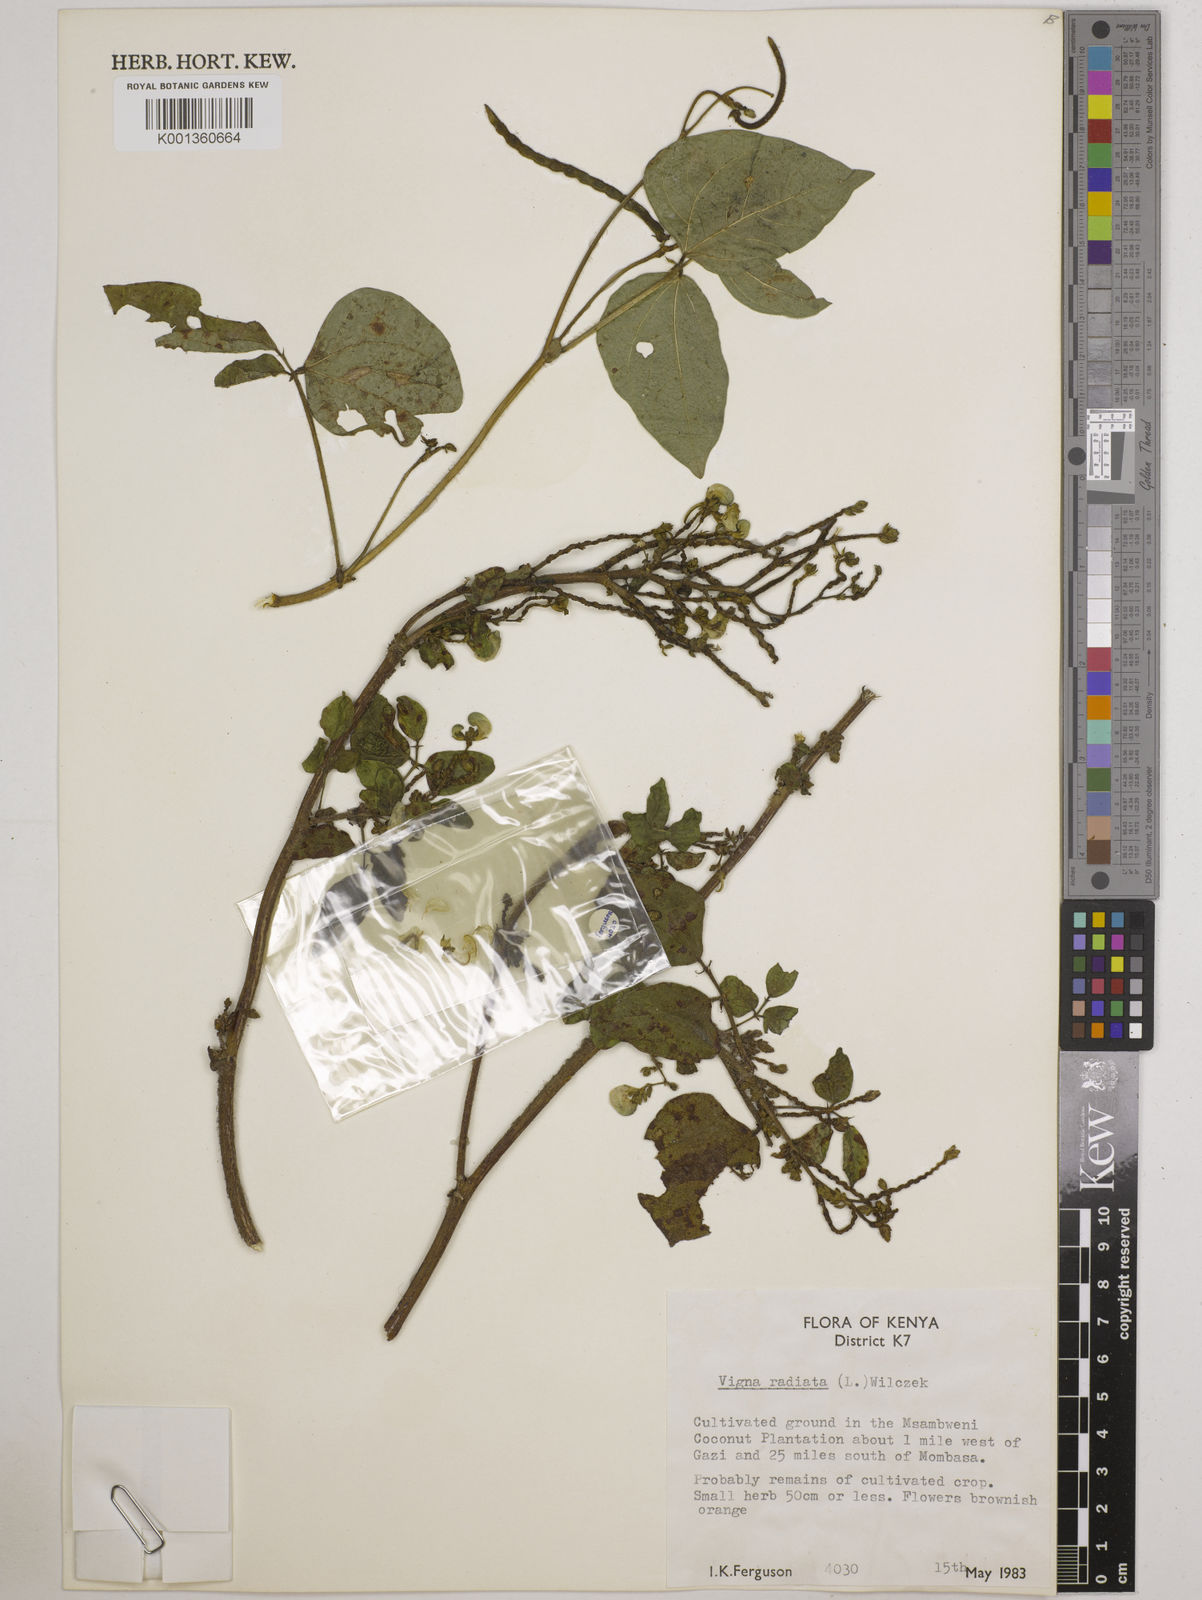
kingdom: Plantae
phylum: Tracheophyta
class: Magnoliopsida
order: Fabales
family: Fabaceae
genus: Vigna
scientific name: Vigna radiata
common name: Mung-bean
